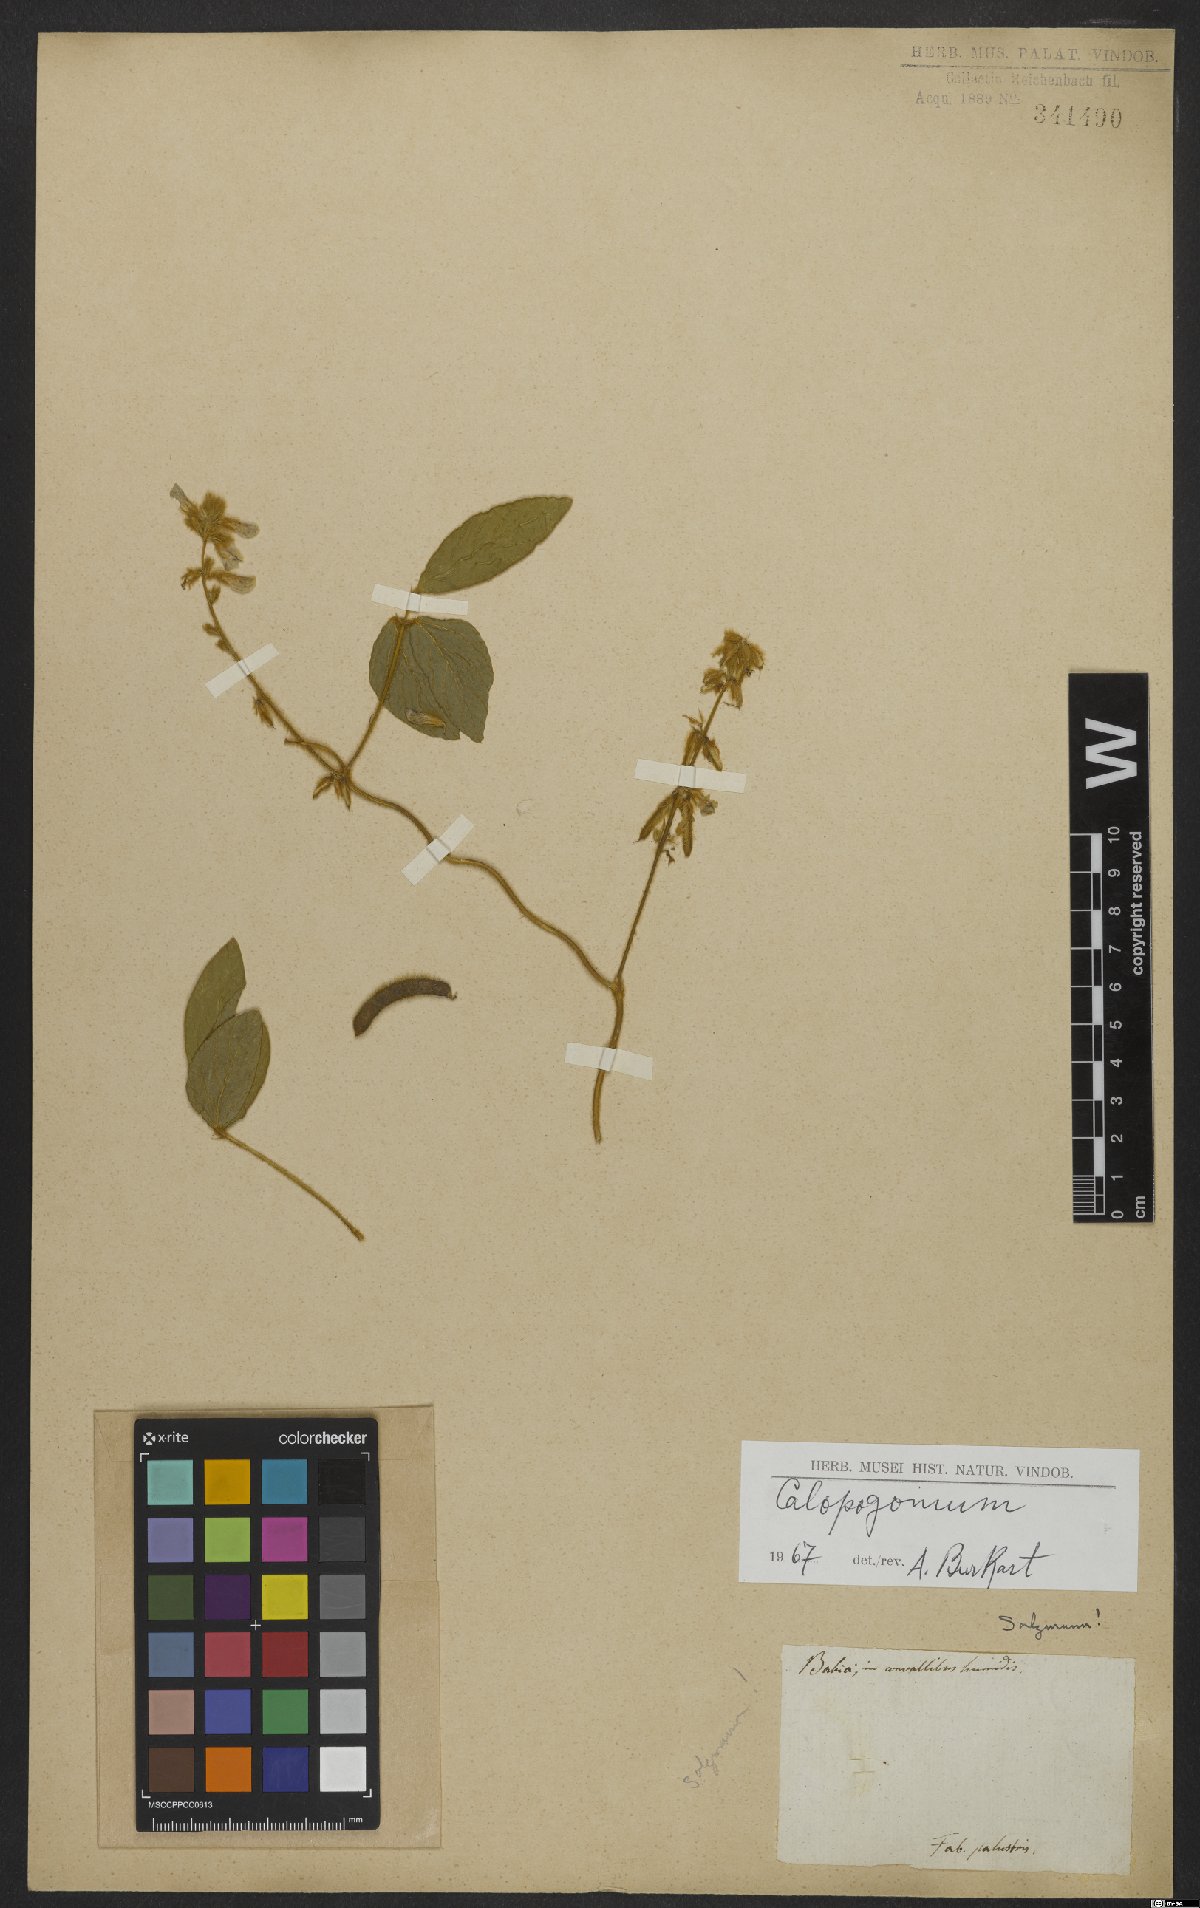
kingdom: Plantae
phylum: Tracheophyta
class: Magnoliopsida
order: Fabales
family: Fabaceae
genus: Calopogonium
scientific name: Calopogonium
